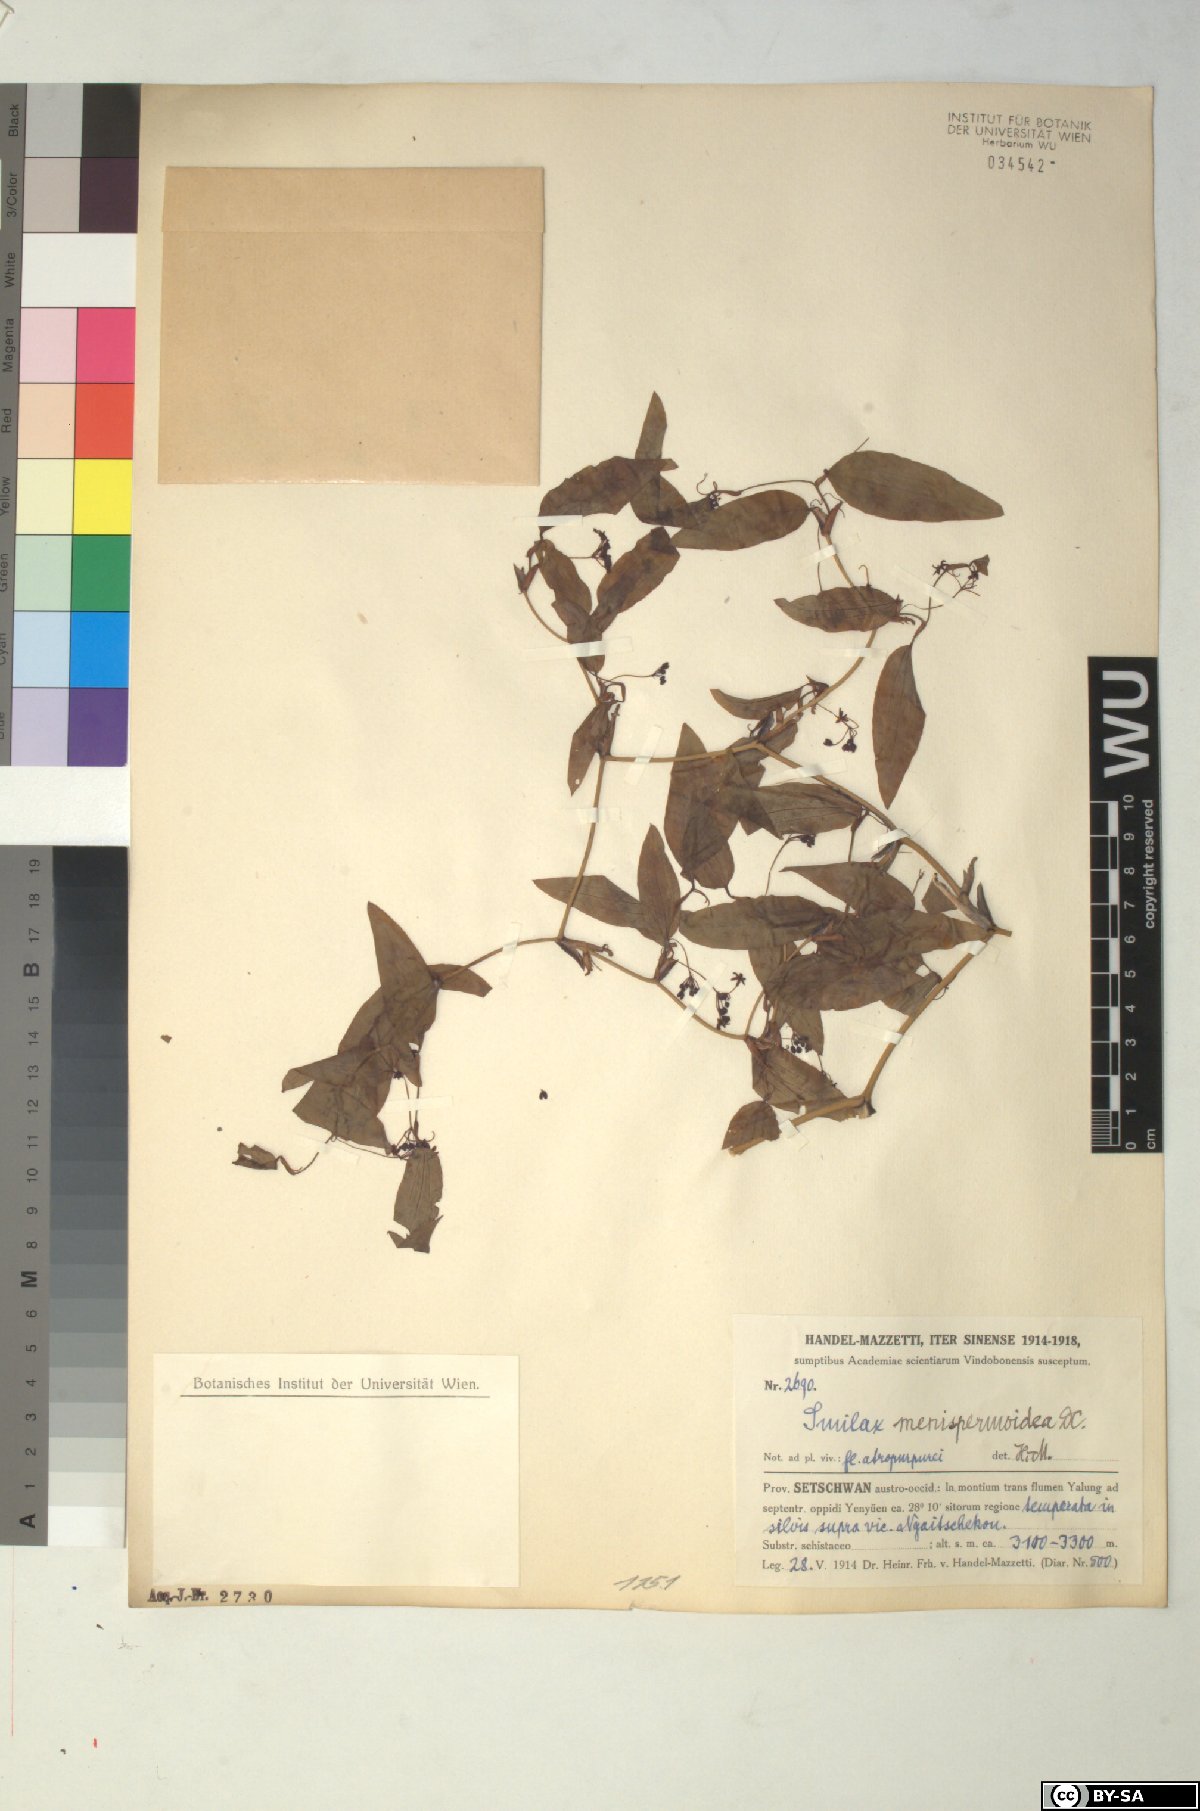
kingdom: Plantae
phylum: Tracheophyta
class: Liliopsida
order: Liliales
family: Smilacaceae
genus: Smilax
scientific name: Smilax menispermoidea
